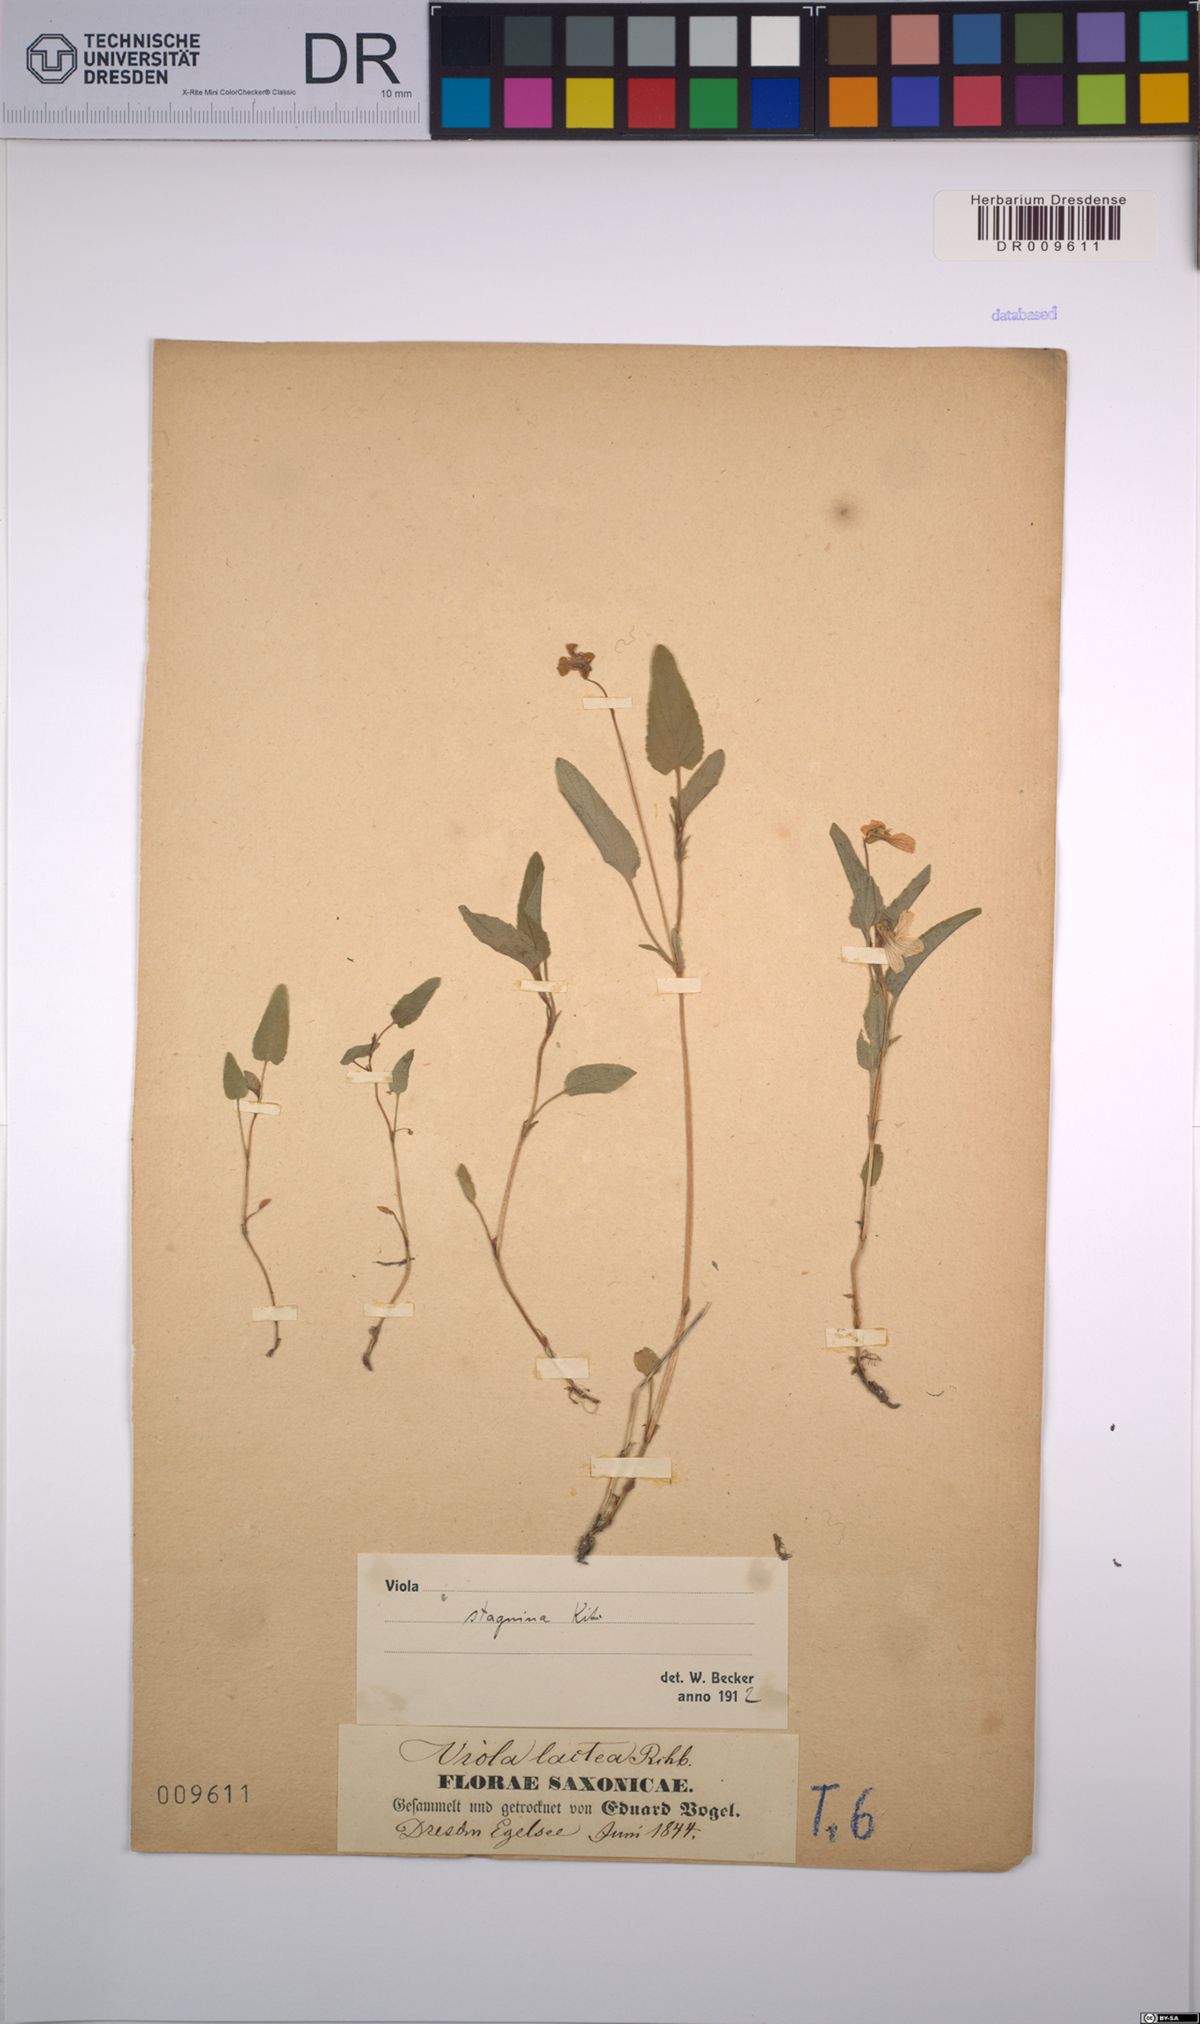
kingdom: Plantae
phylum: Tracheophyta
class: Magnoliopsida
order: Malpighiales
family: Violaceae
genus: Viola
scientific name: Viola stagnina
